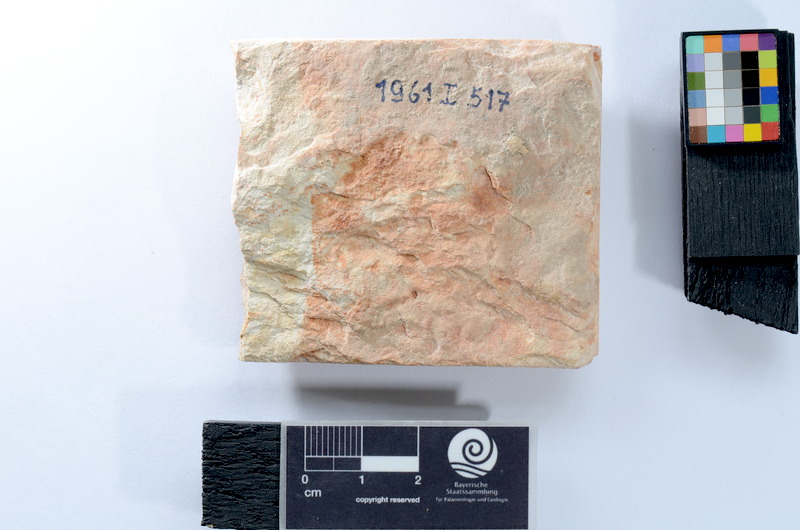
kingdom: Animalia
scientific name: Animalia
